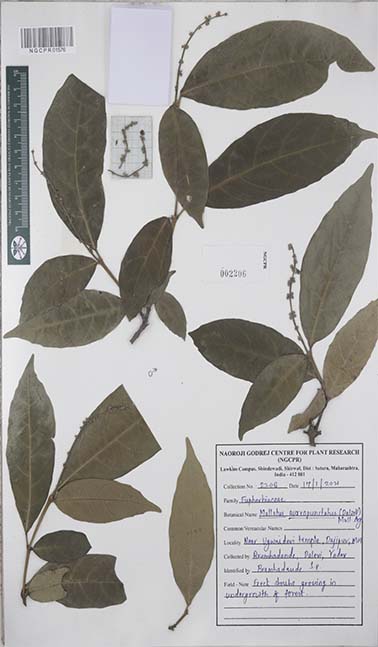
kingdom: Plantae
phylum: Tracheophyta
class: Magnoliopsida
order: Malpighiales
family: Euphorbiaceae
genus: Mallotus
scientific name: Mallotus resinosus
